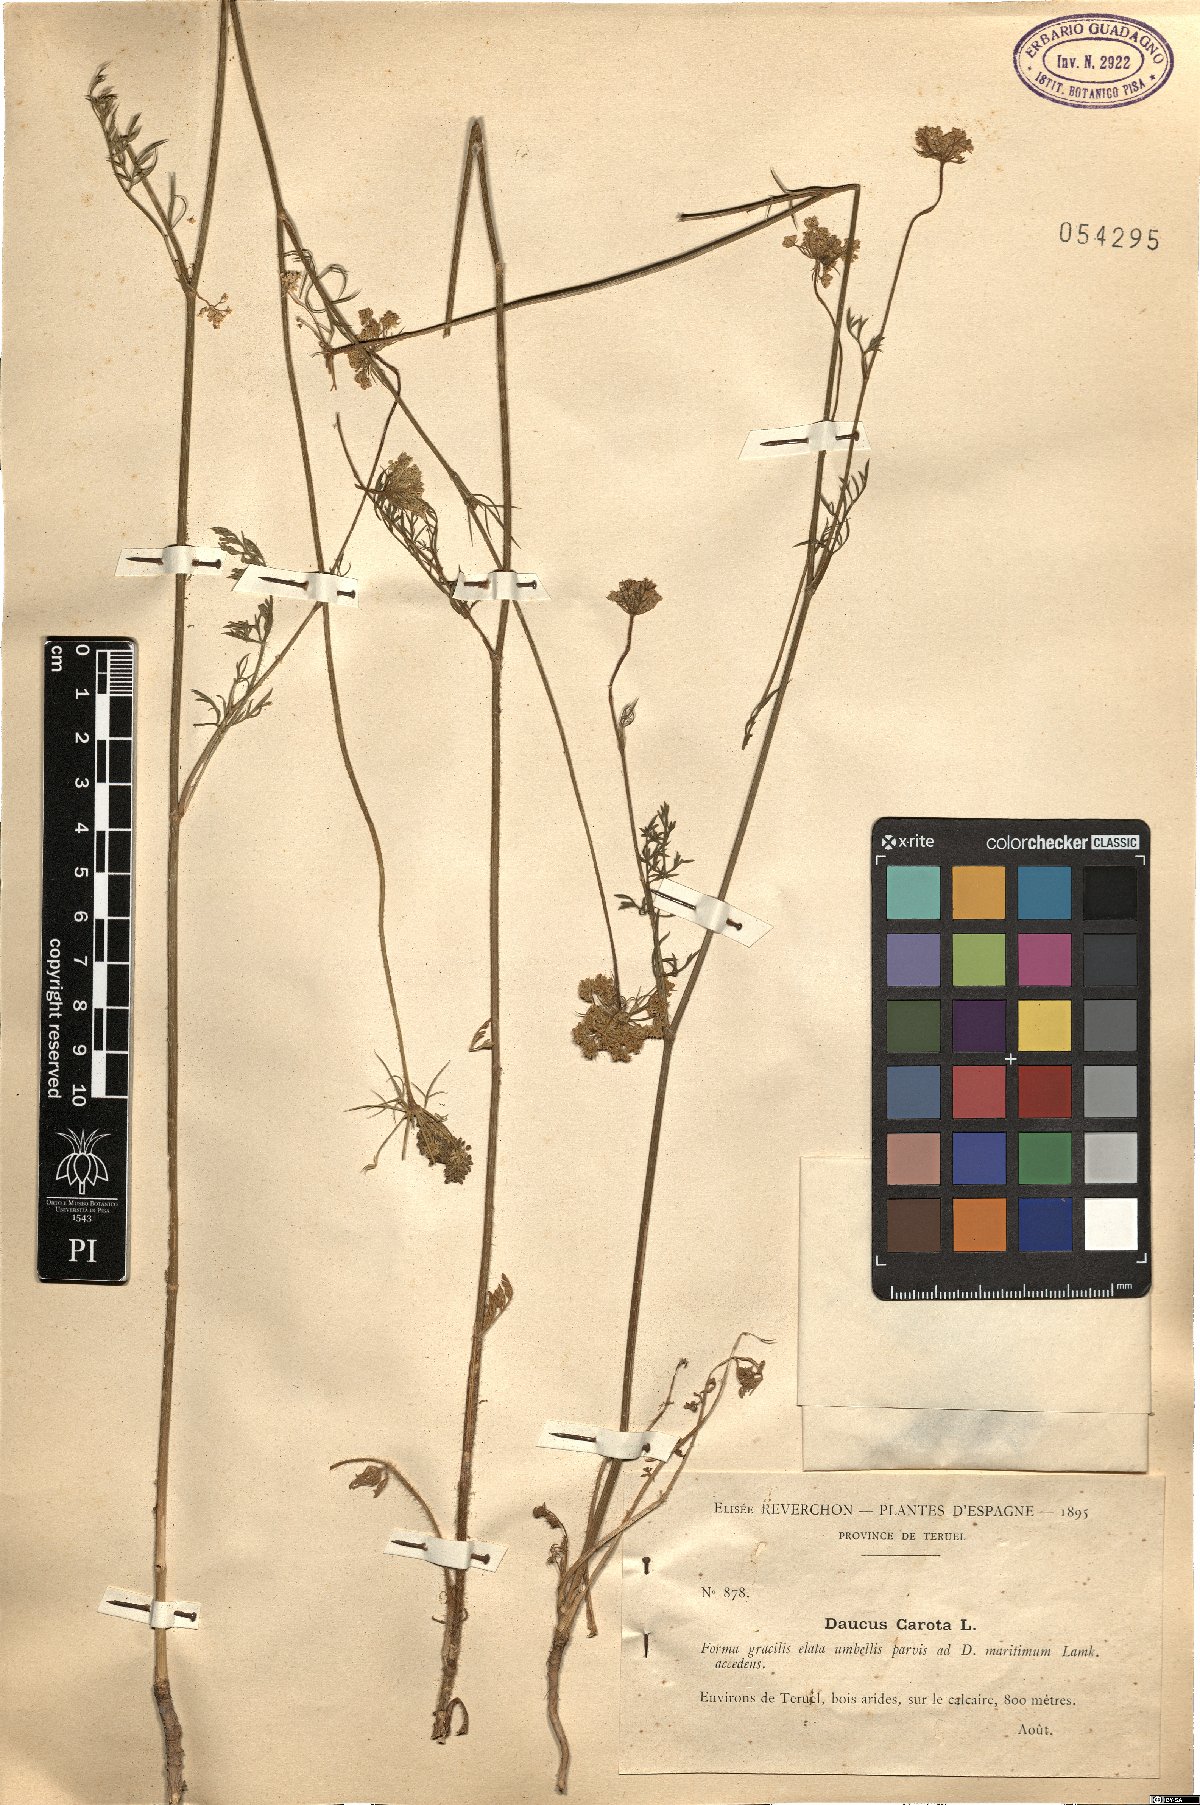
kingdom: Plantae
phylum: Tracheophyta
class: Magnoliopsida
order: Apiales
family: Apiaceae
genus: Daucus
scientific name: Daucus carota
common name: Wild carrot
